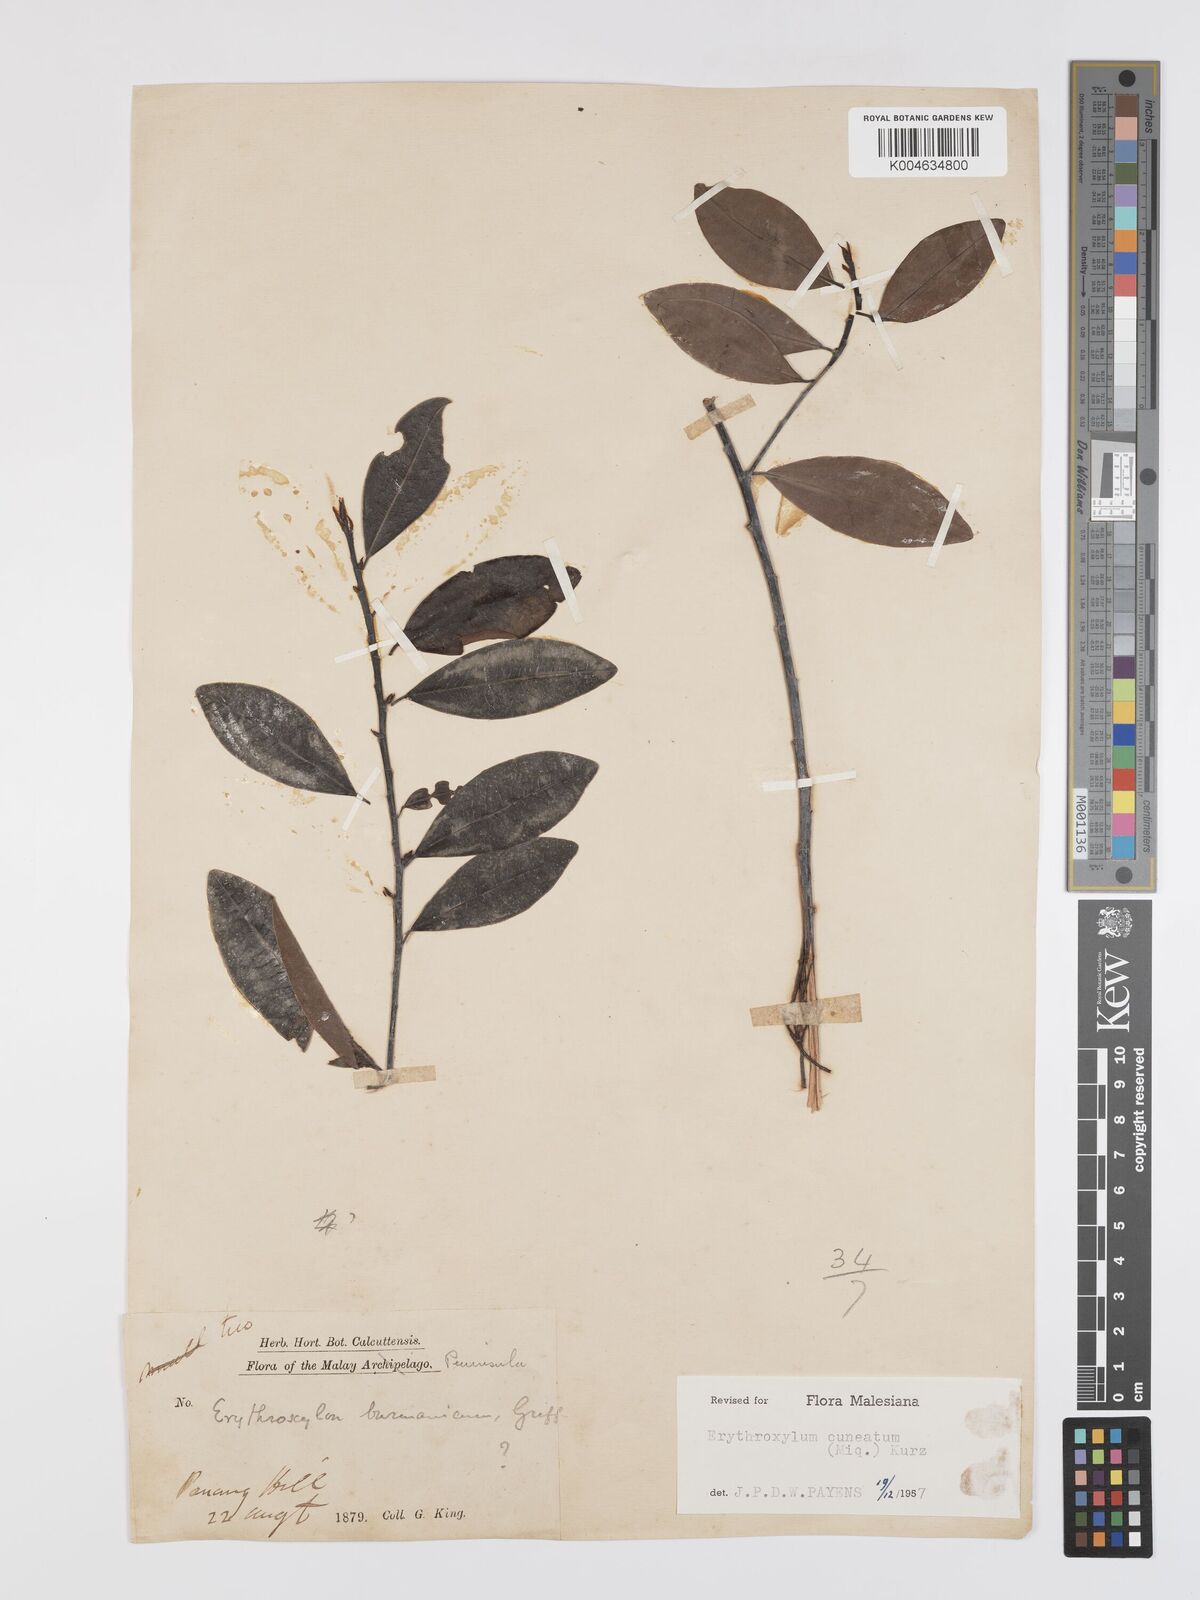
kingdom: Plantae
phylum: Tracheophyta
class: Magnoliopsida
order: Malpighiales
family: Erythroxylaceae
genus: Erythroxylum
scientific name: Erythroxylum cuneatum
